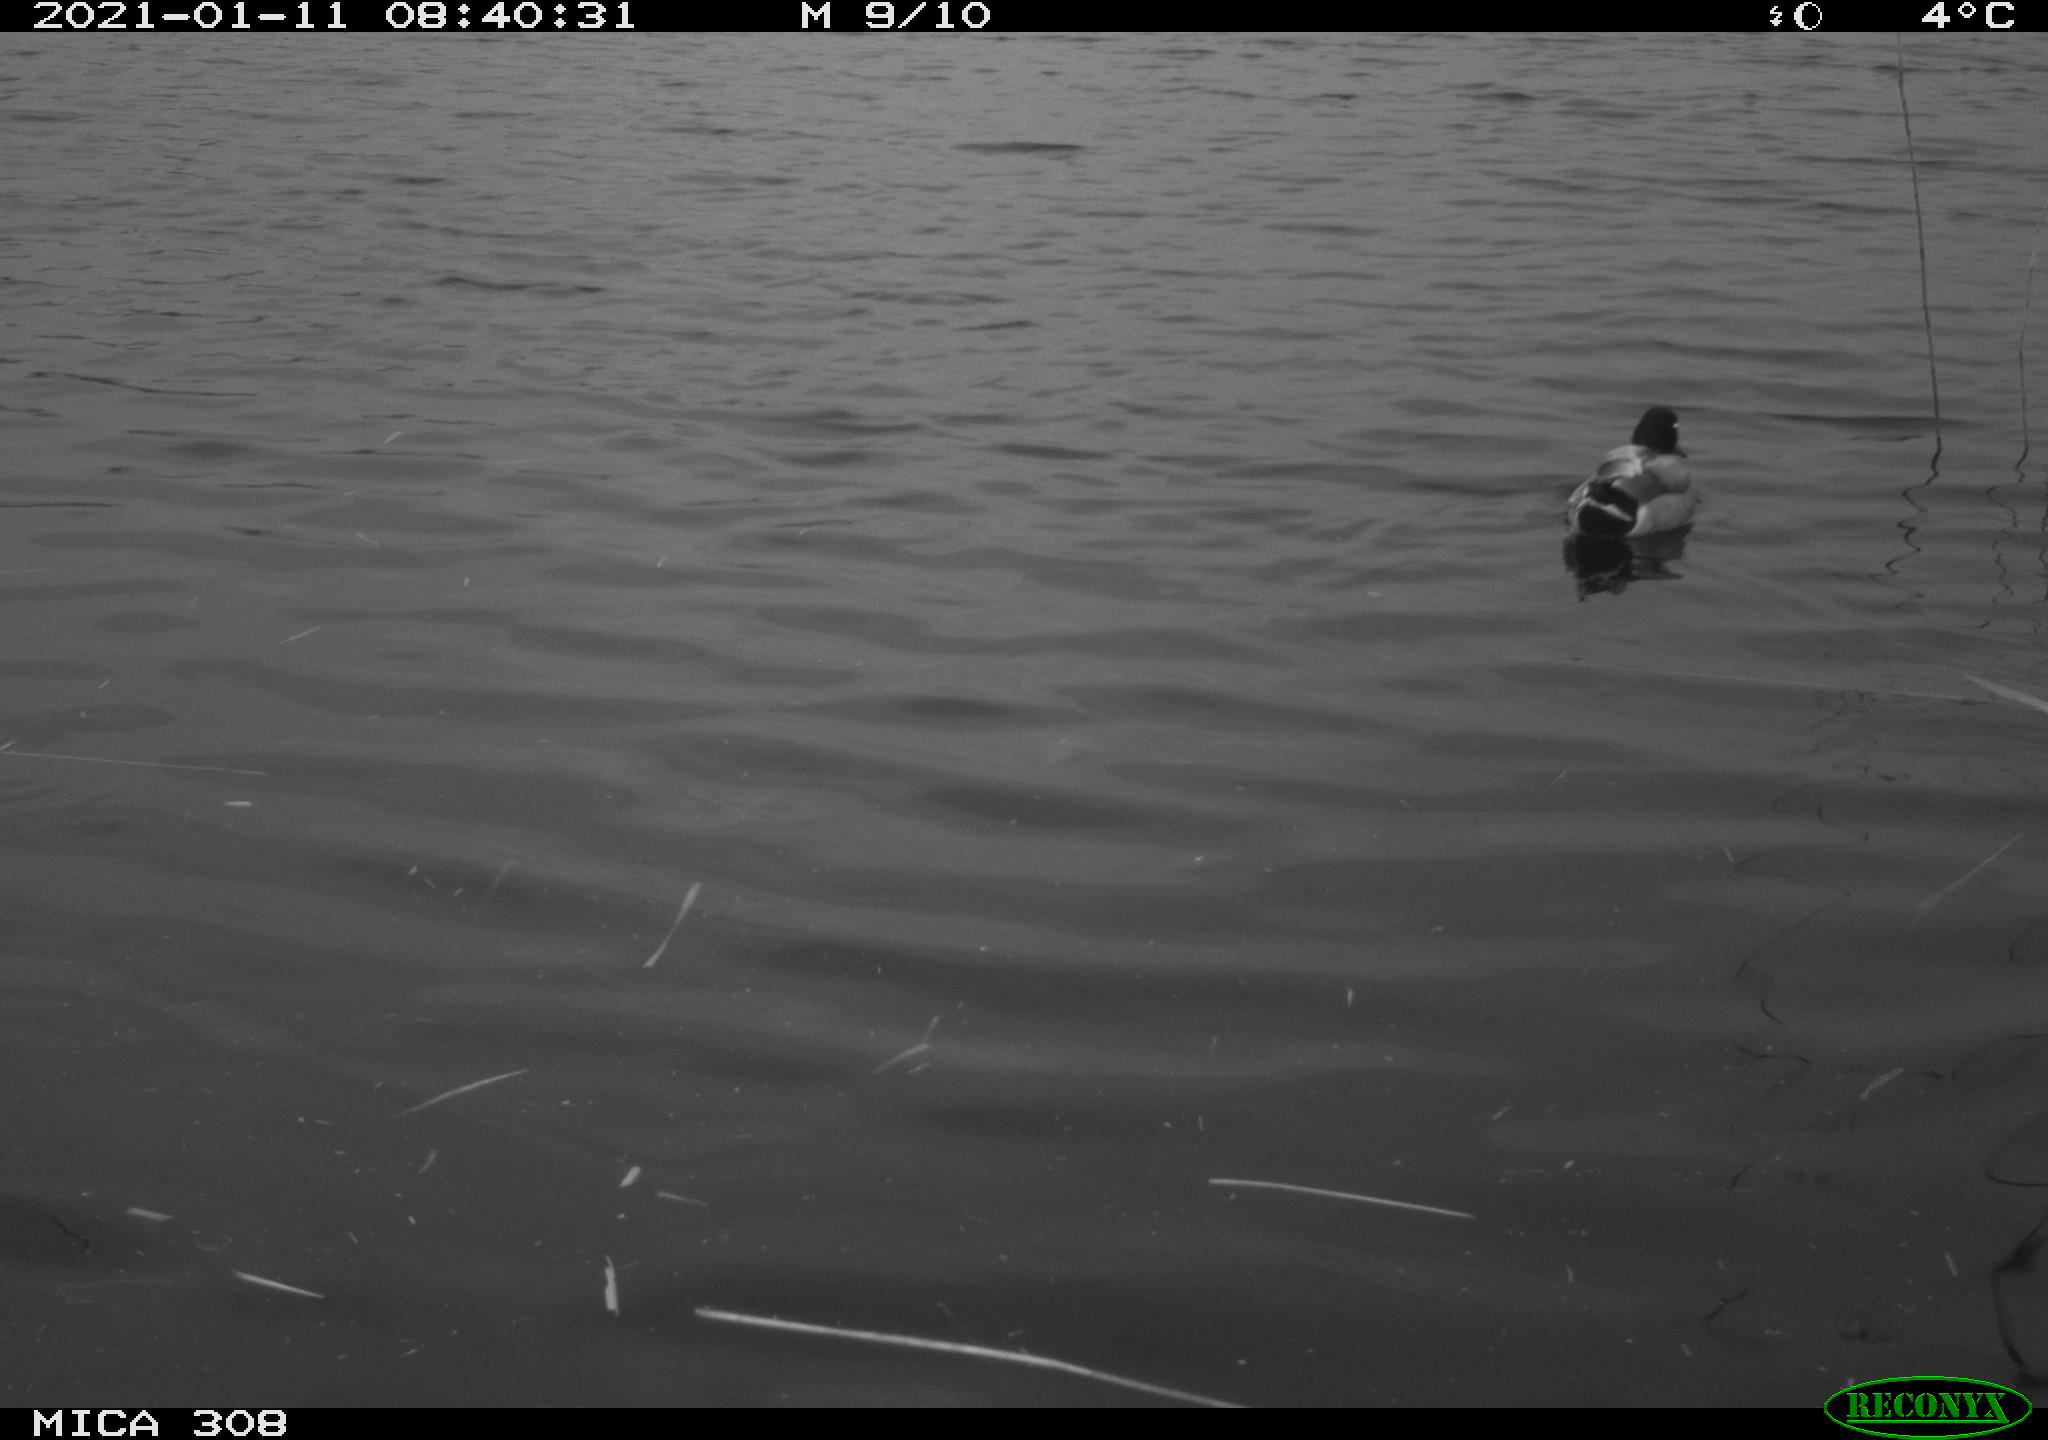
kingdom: Animalia
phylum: Chordata
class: Aves
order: Anseriformes
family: Anatidae
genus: Anas
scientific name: Anas platyrhynchos
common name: Mallard
